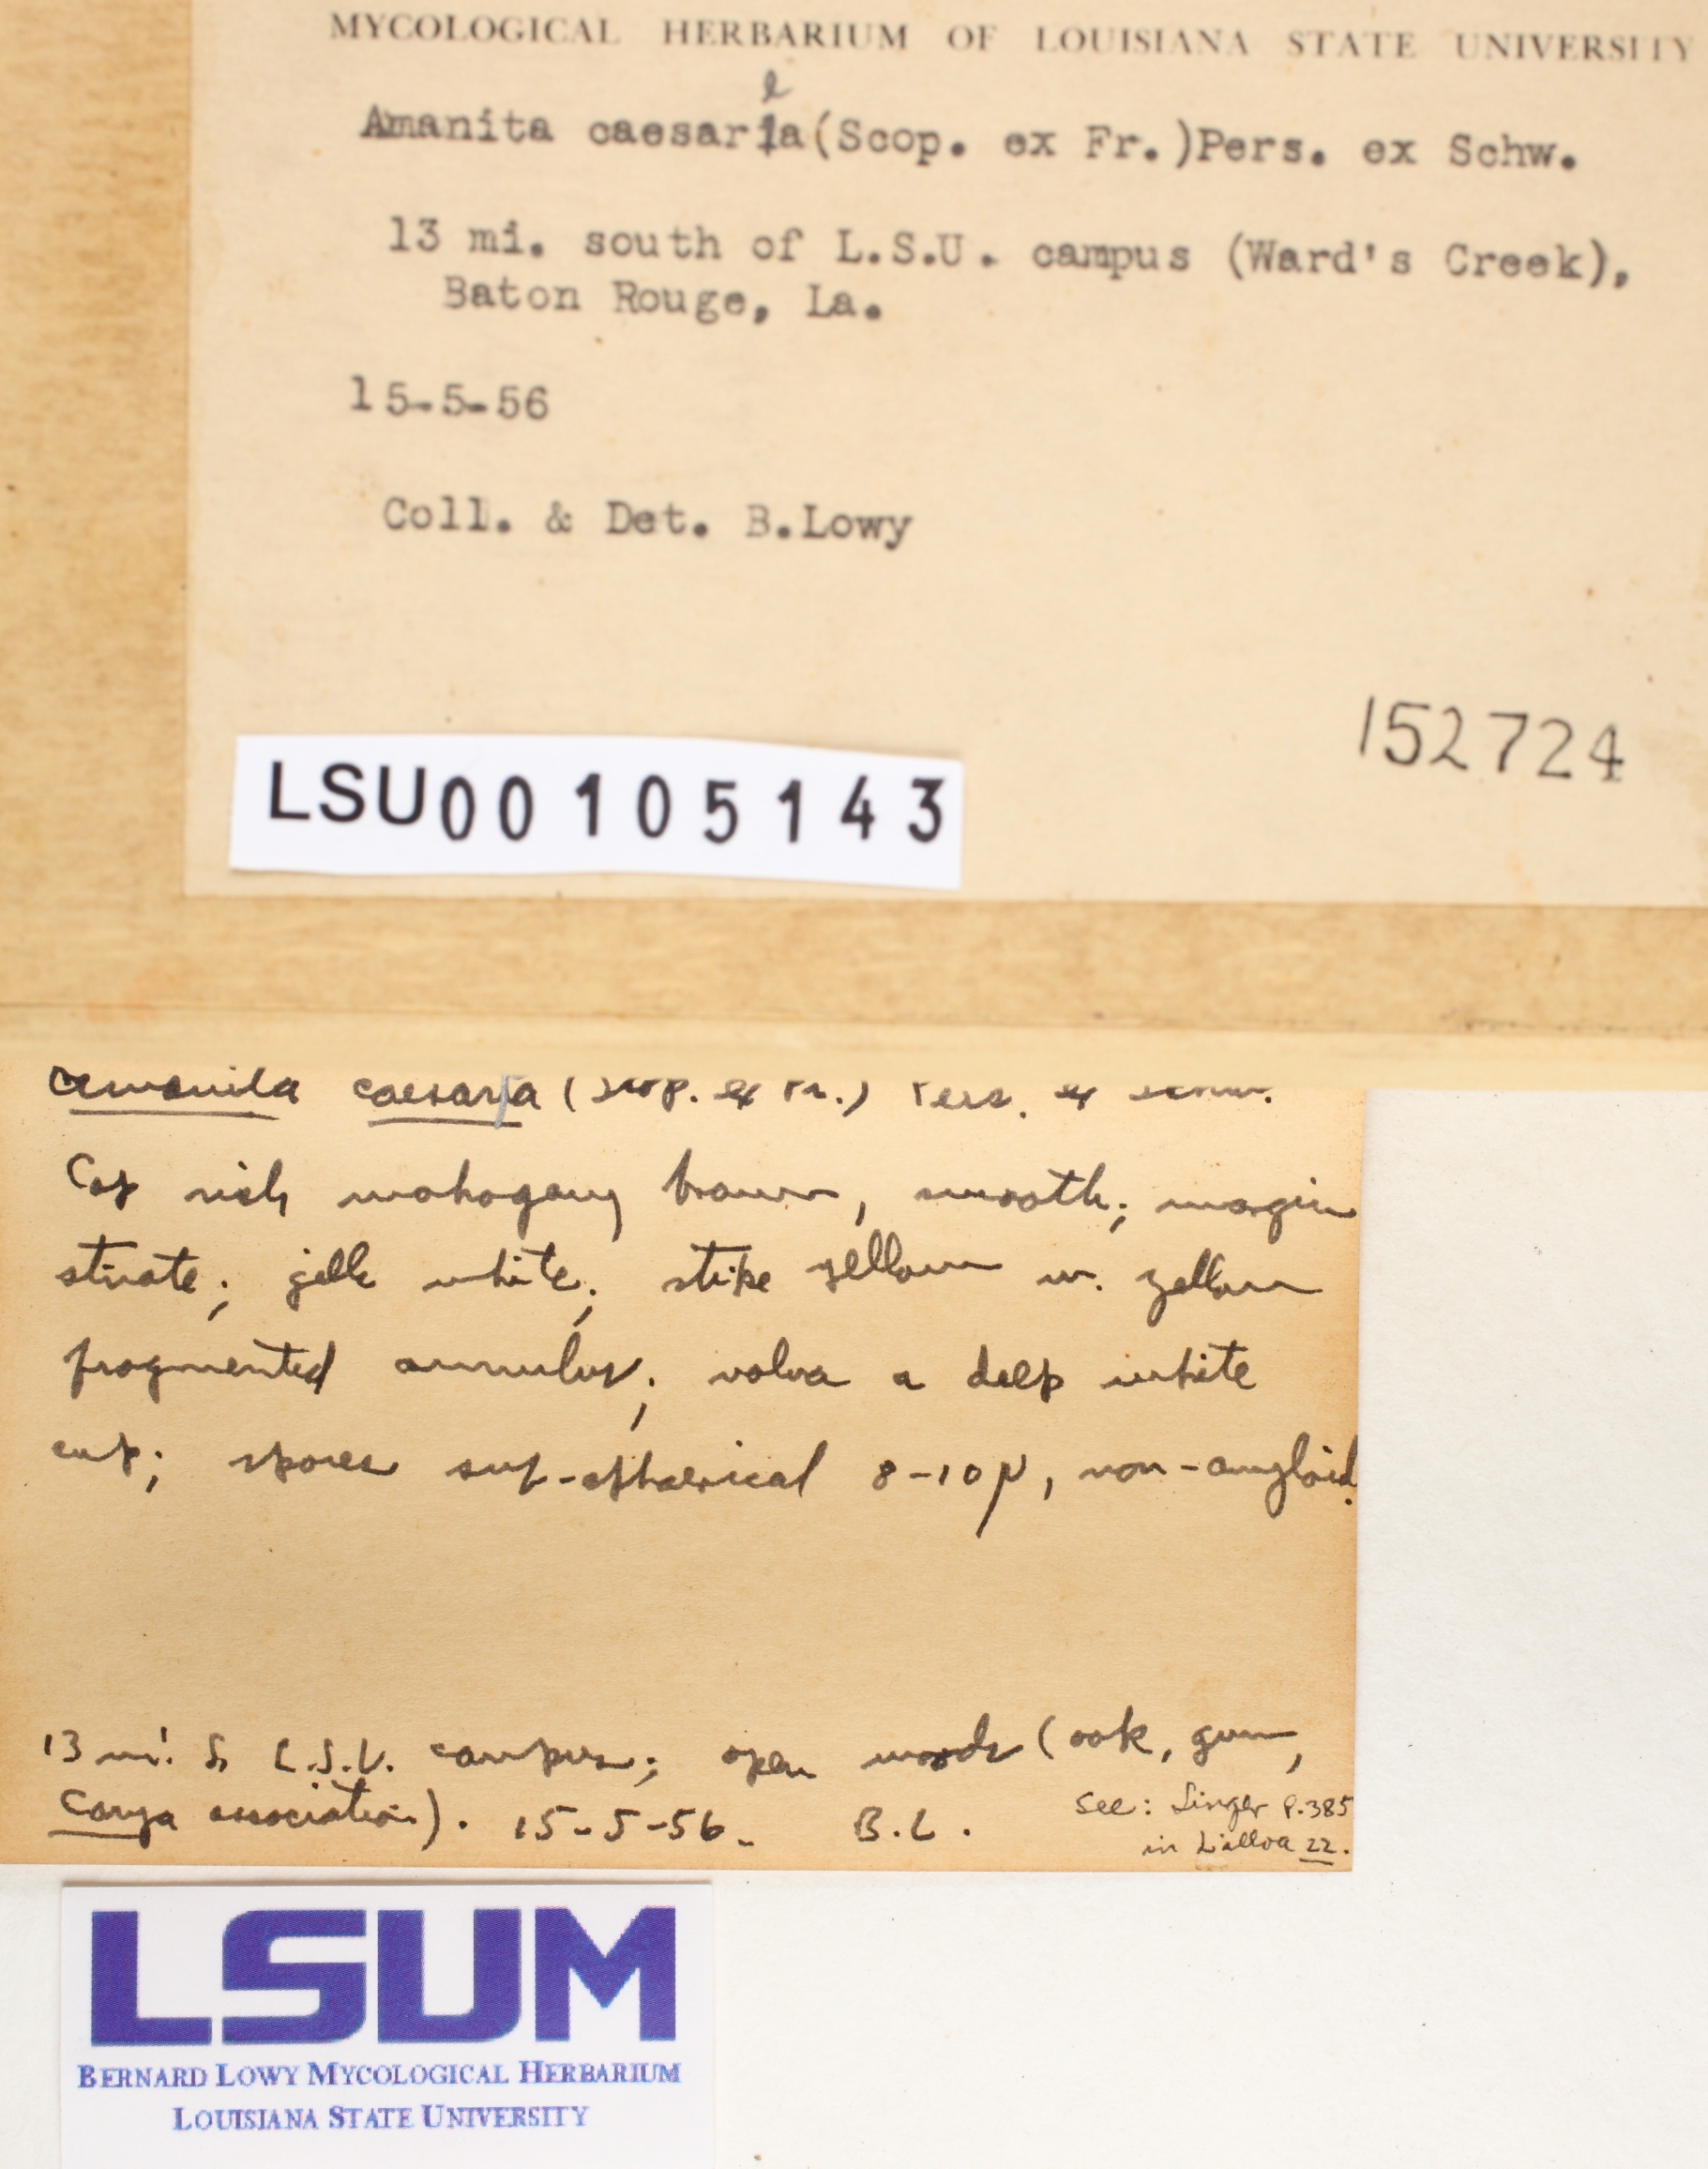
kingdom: Fungi
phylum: Basidiomycota
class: Agaricomycetes
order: Agaricales
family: Amanitaceae
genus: Amanita
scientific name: Amanita caesarea
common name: Caesar's amanita
